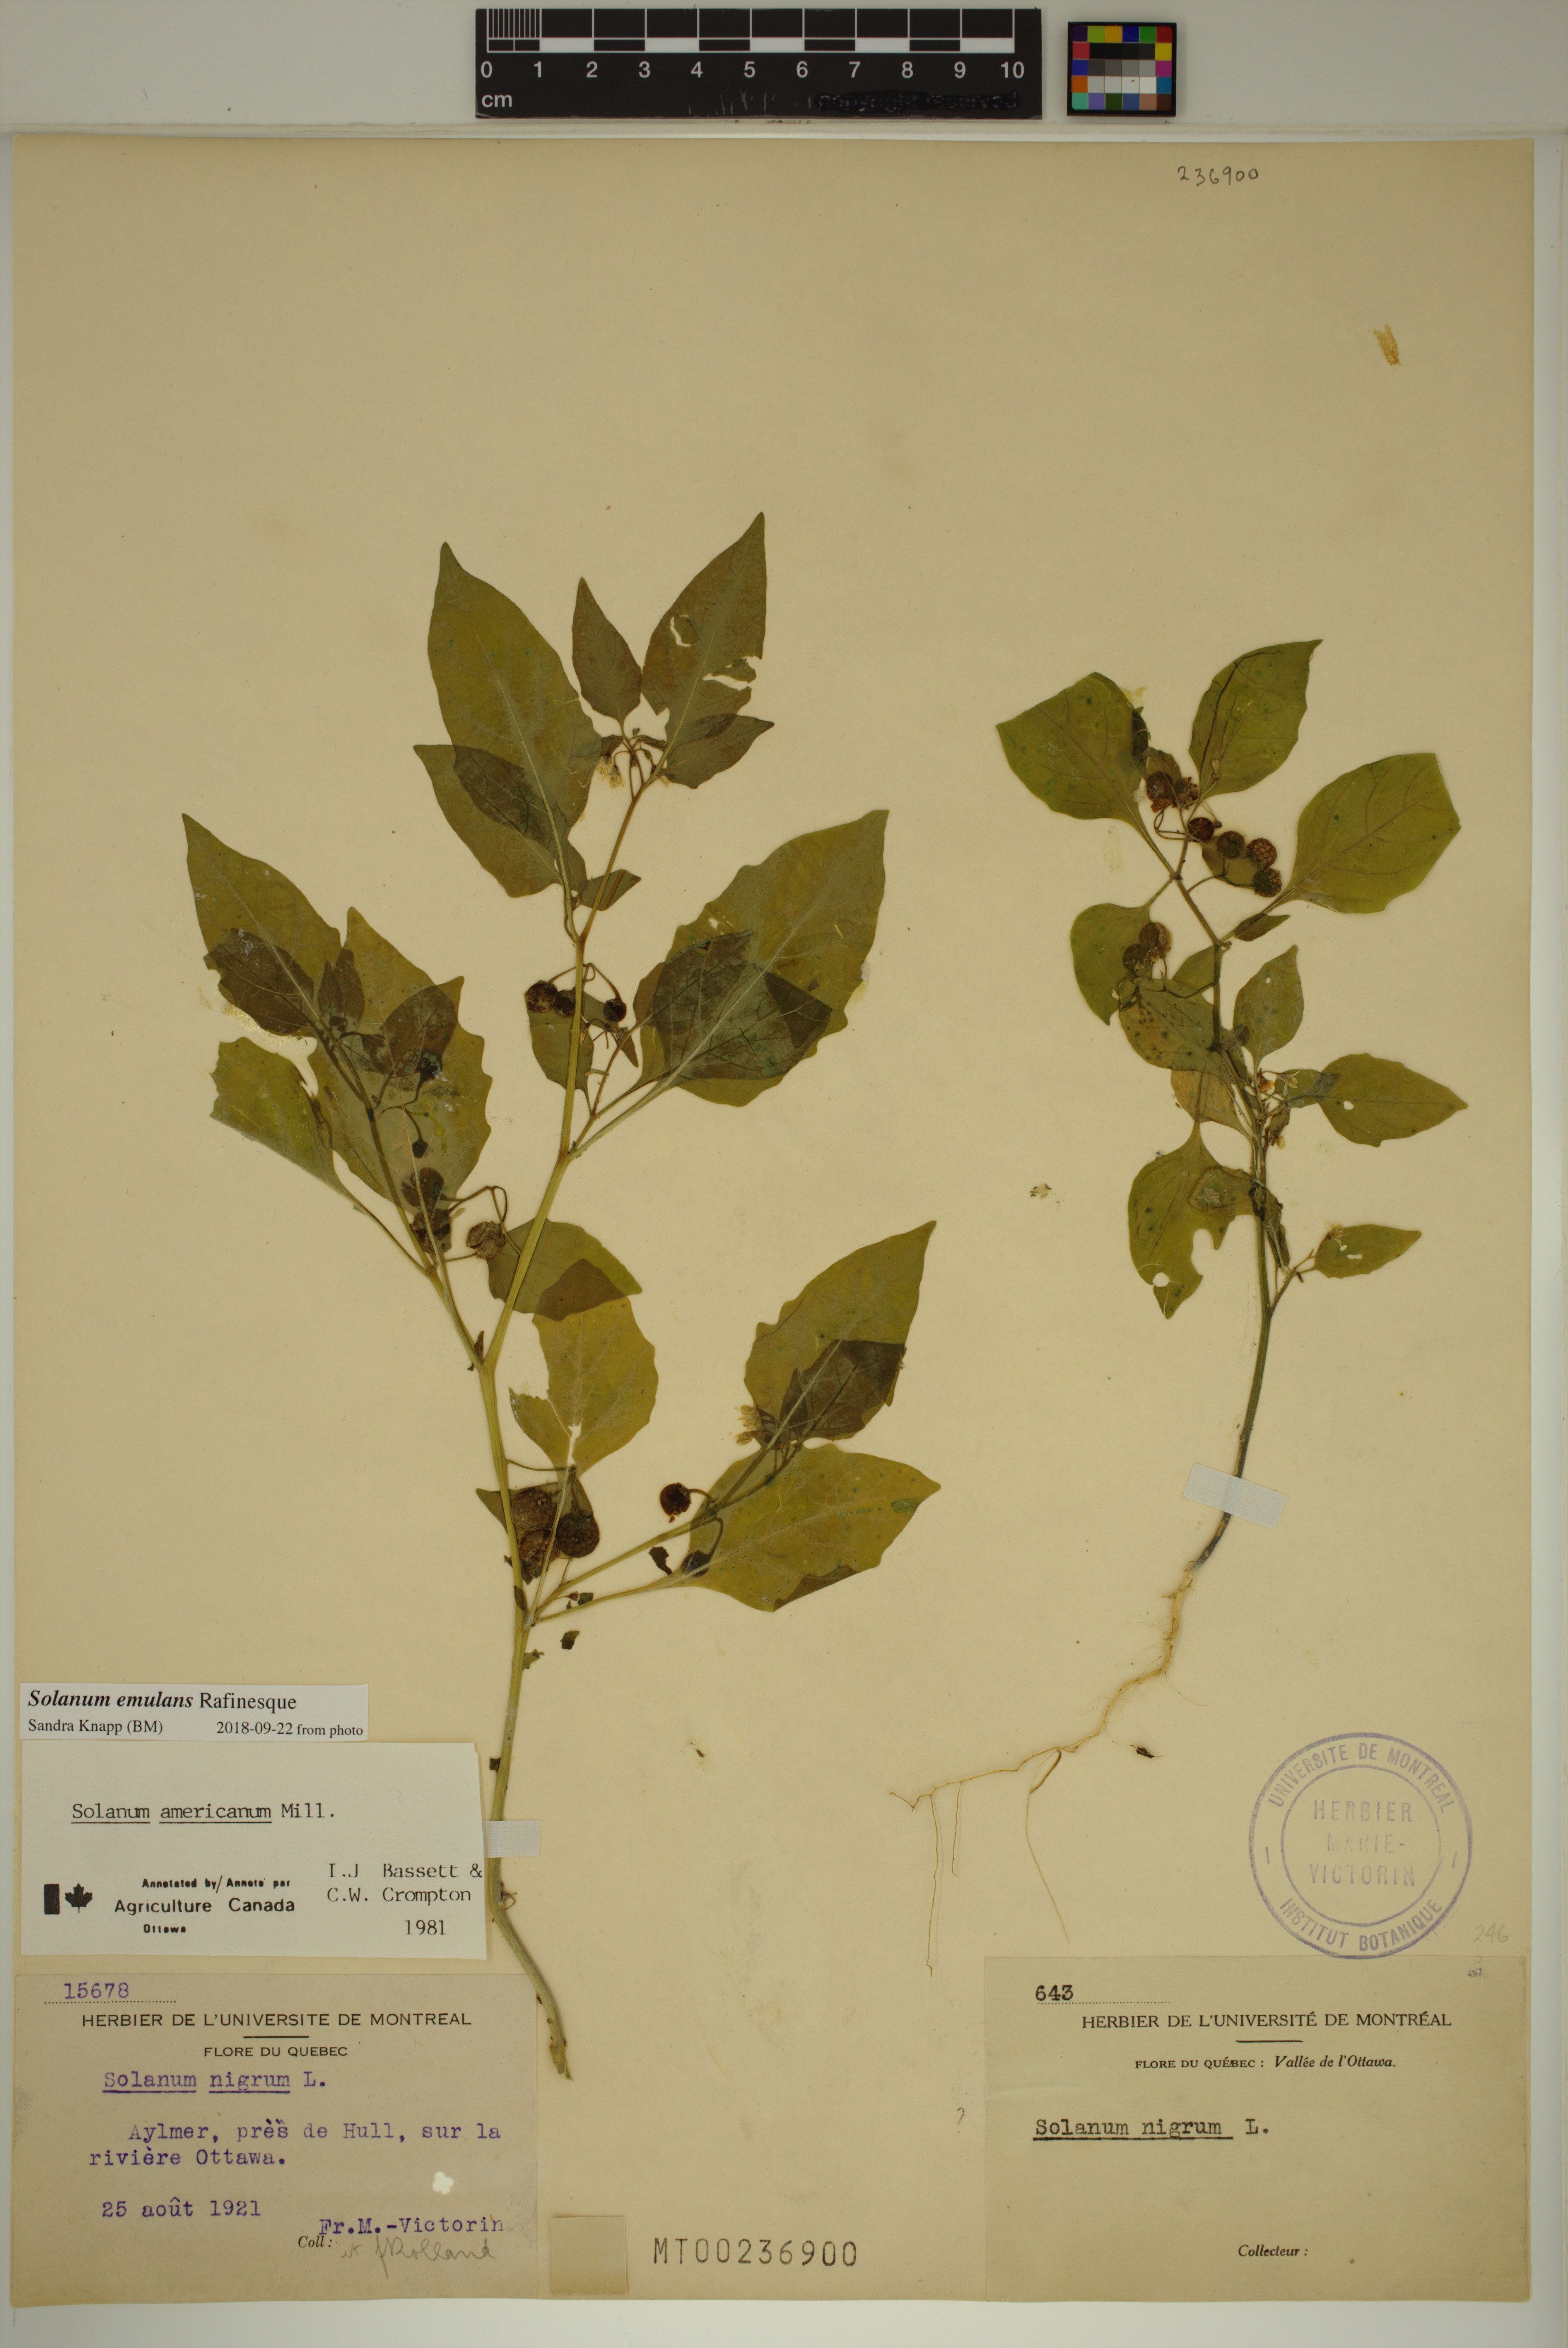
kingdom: Plantae
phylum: Tracheophyta
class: Magnoliopsida
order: Solanales
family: Solanaceae
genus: Solanum
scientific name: Solanum emulans
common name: Eastern black nightshade
